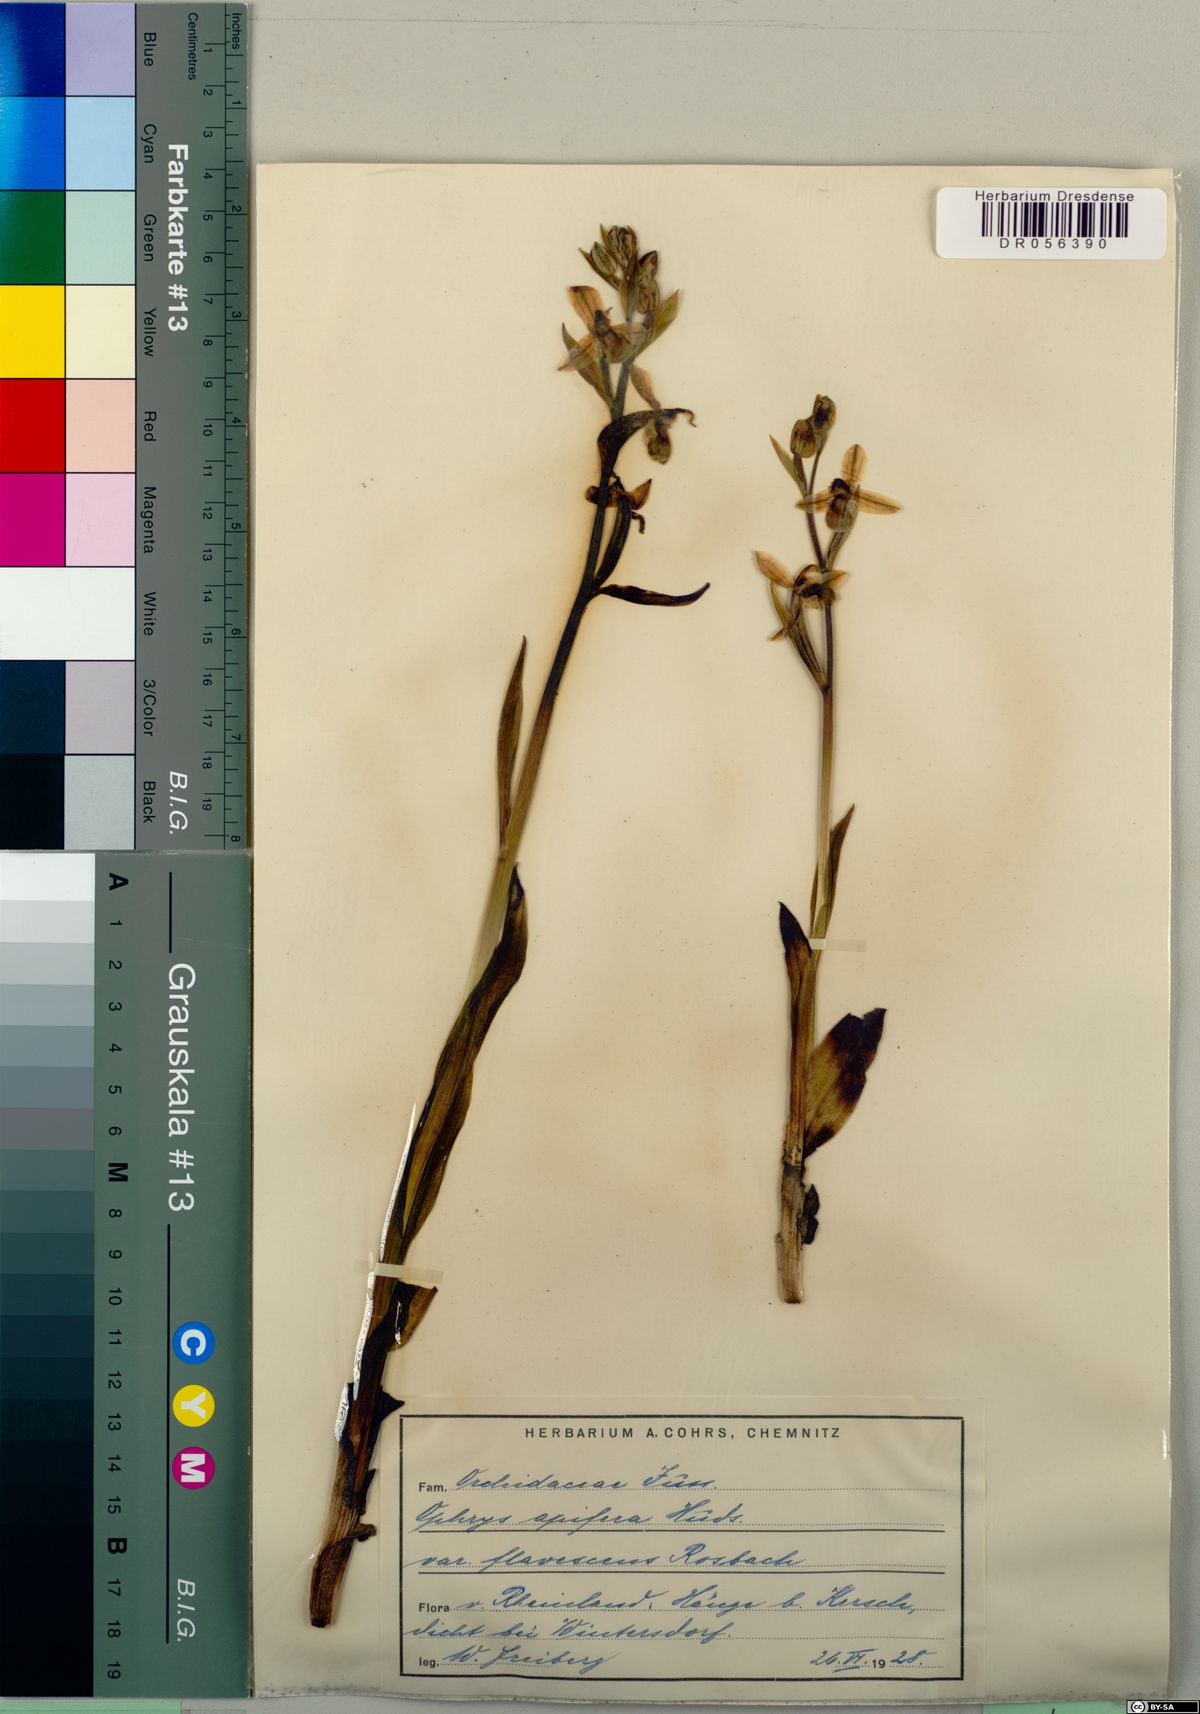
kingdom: Plantae
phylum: Tracheophyta
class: Liliopsida
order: Asparagales
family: Orchidaceae
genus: Ophrys
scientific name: Ophrys apifera
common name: Bee orchid
